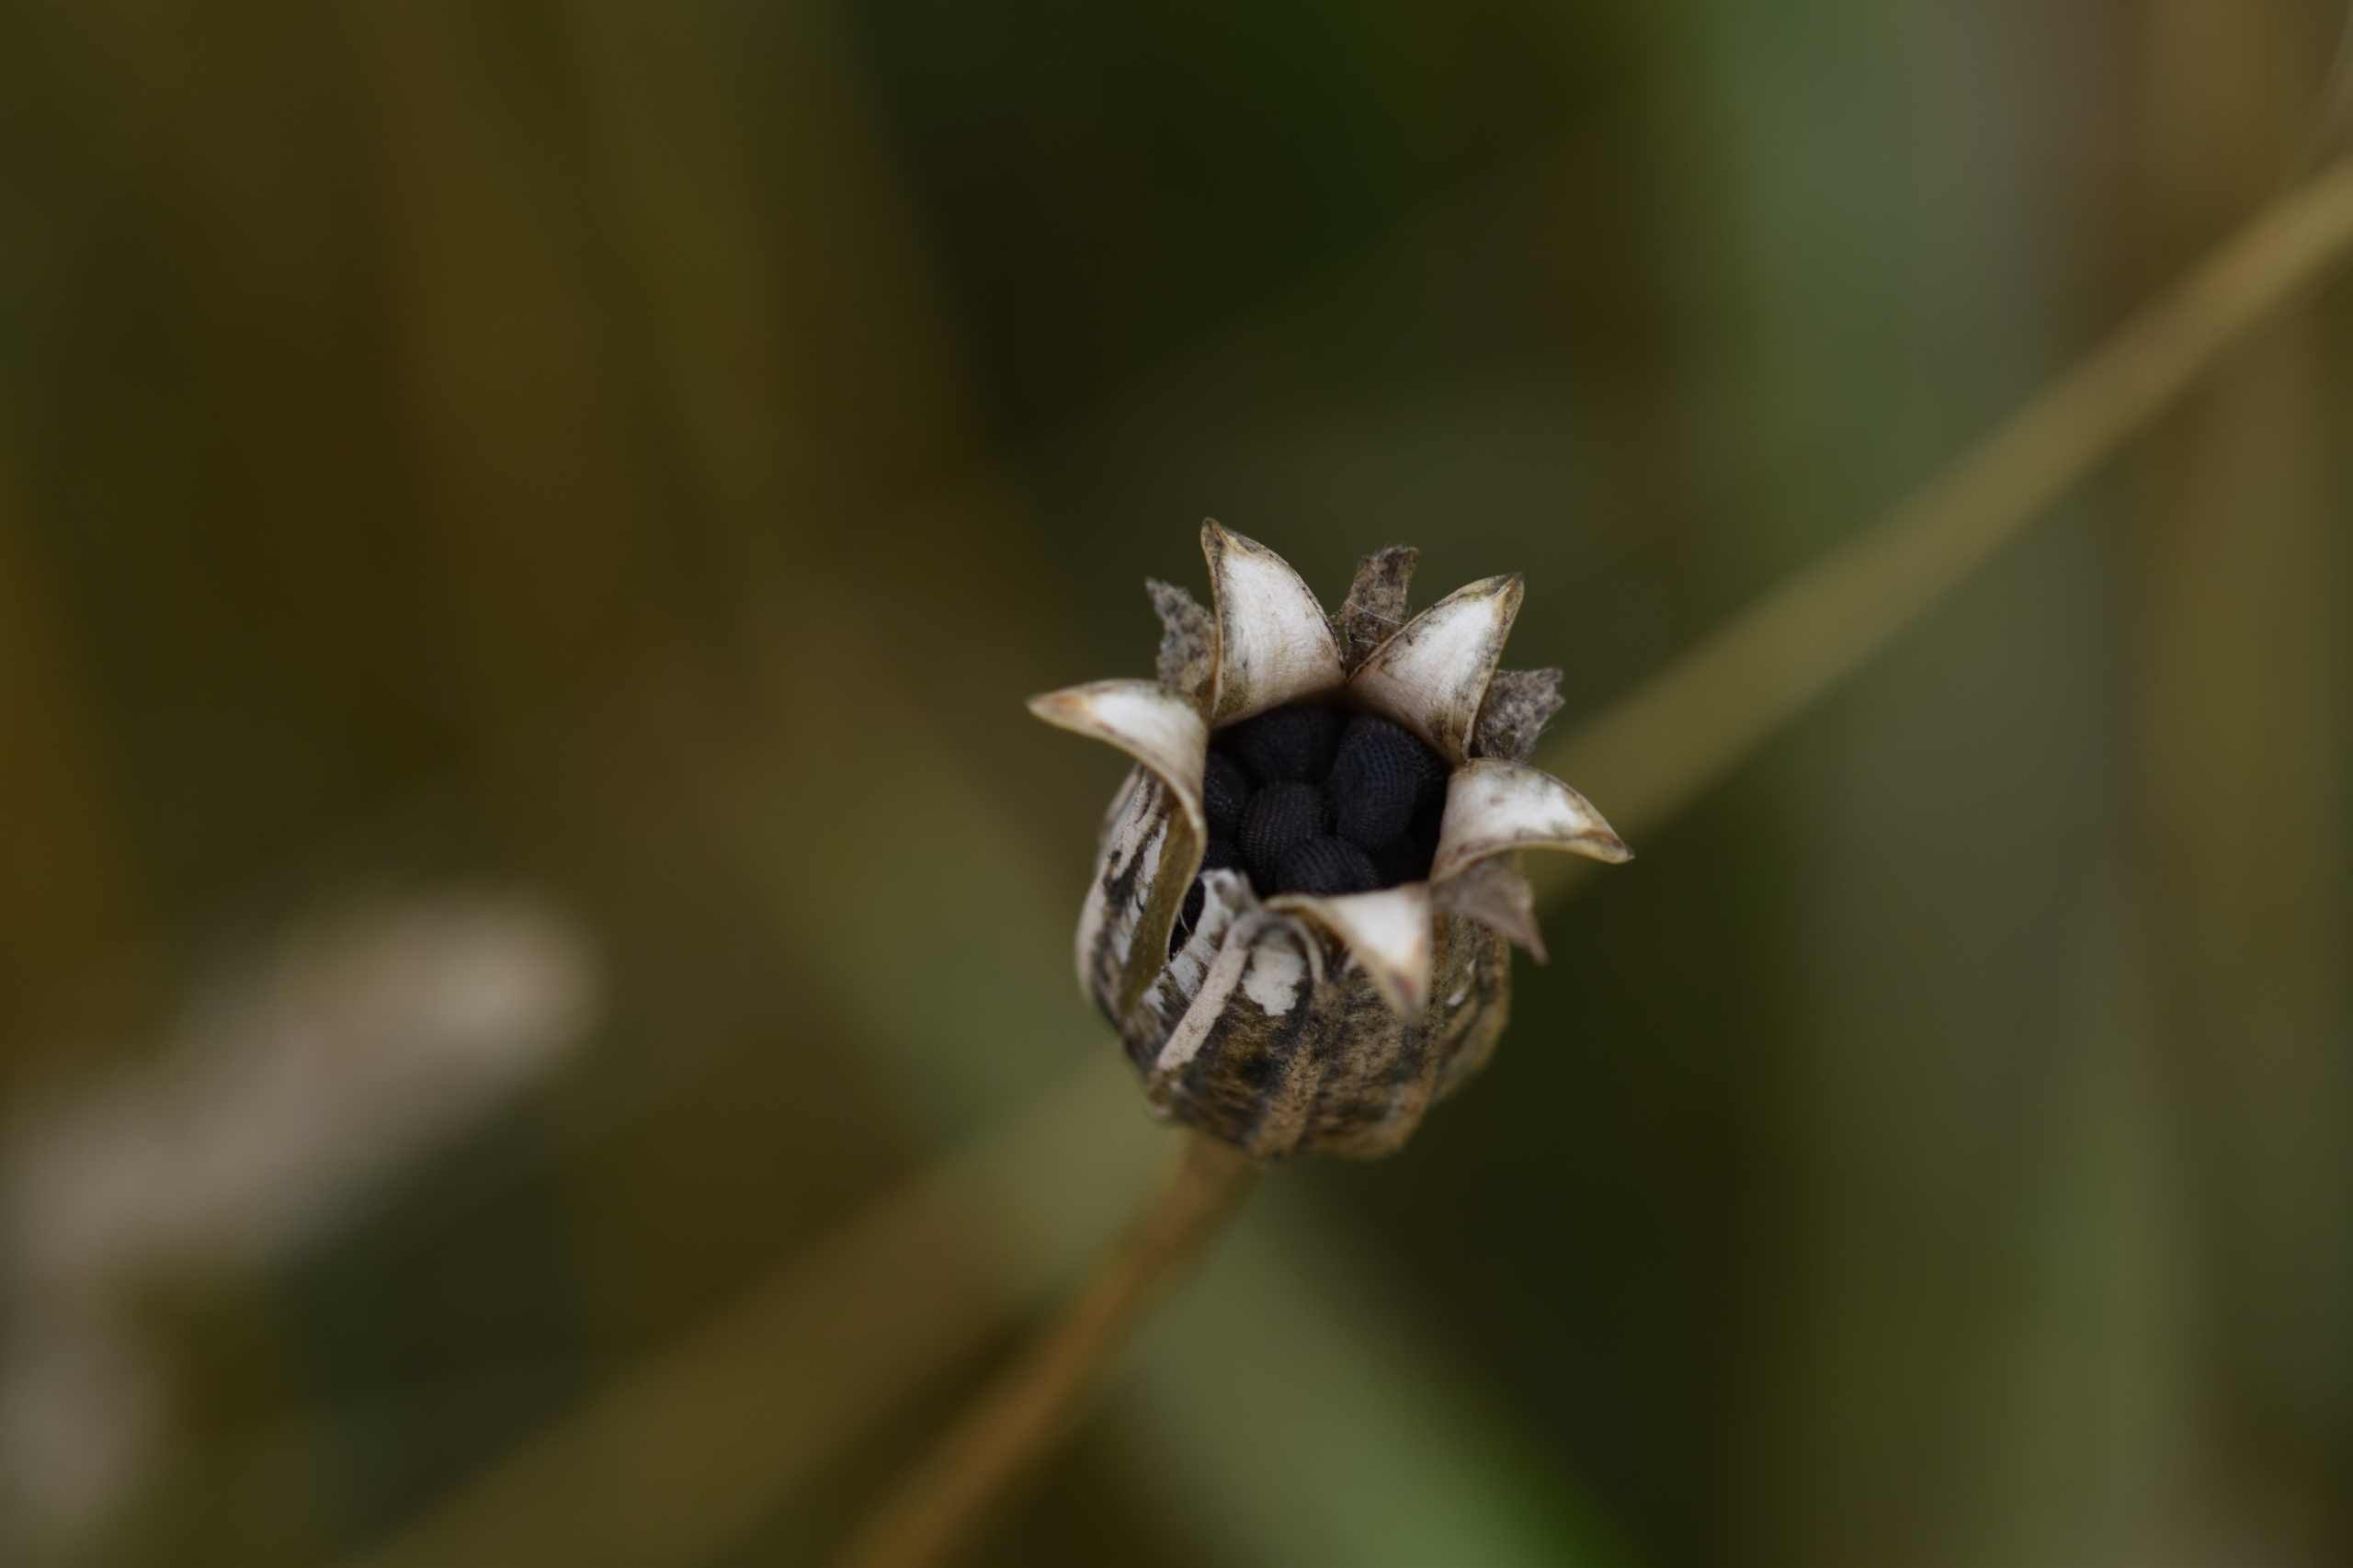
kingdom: Plantae
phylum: Tracheophyta
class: Magnoliopsida
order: Caryophyllales
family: Caryophyllaceae
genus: Agrostemma
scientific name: Agrostemma githago
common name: Klinte
